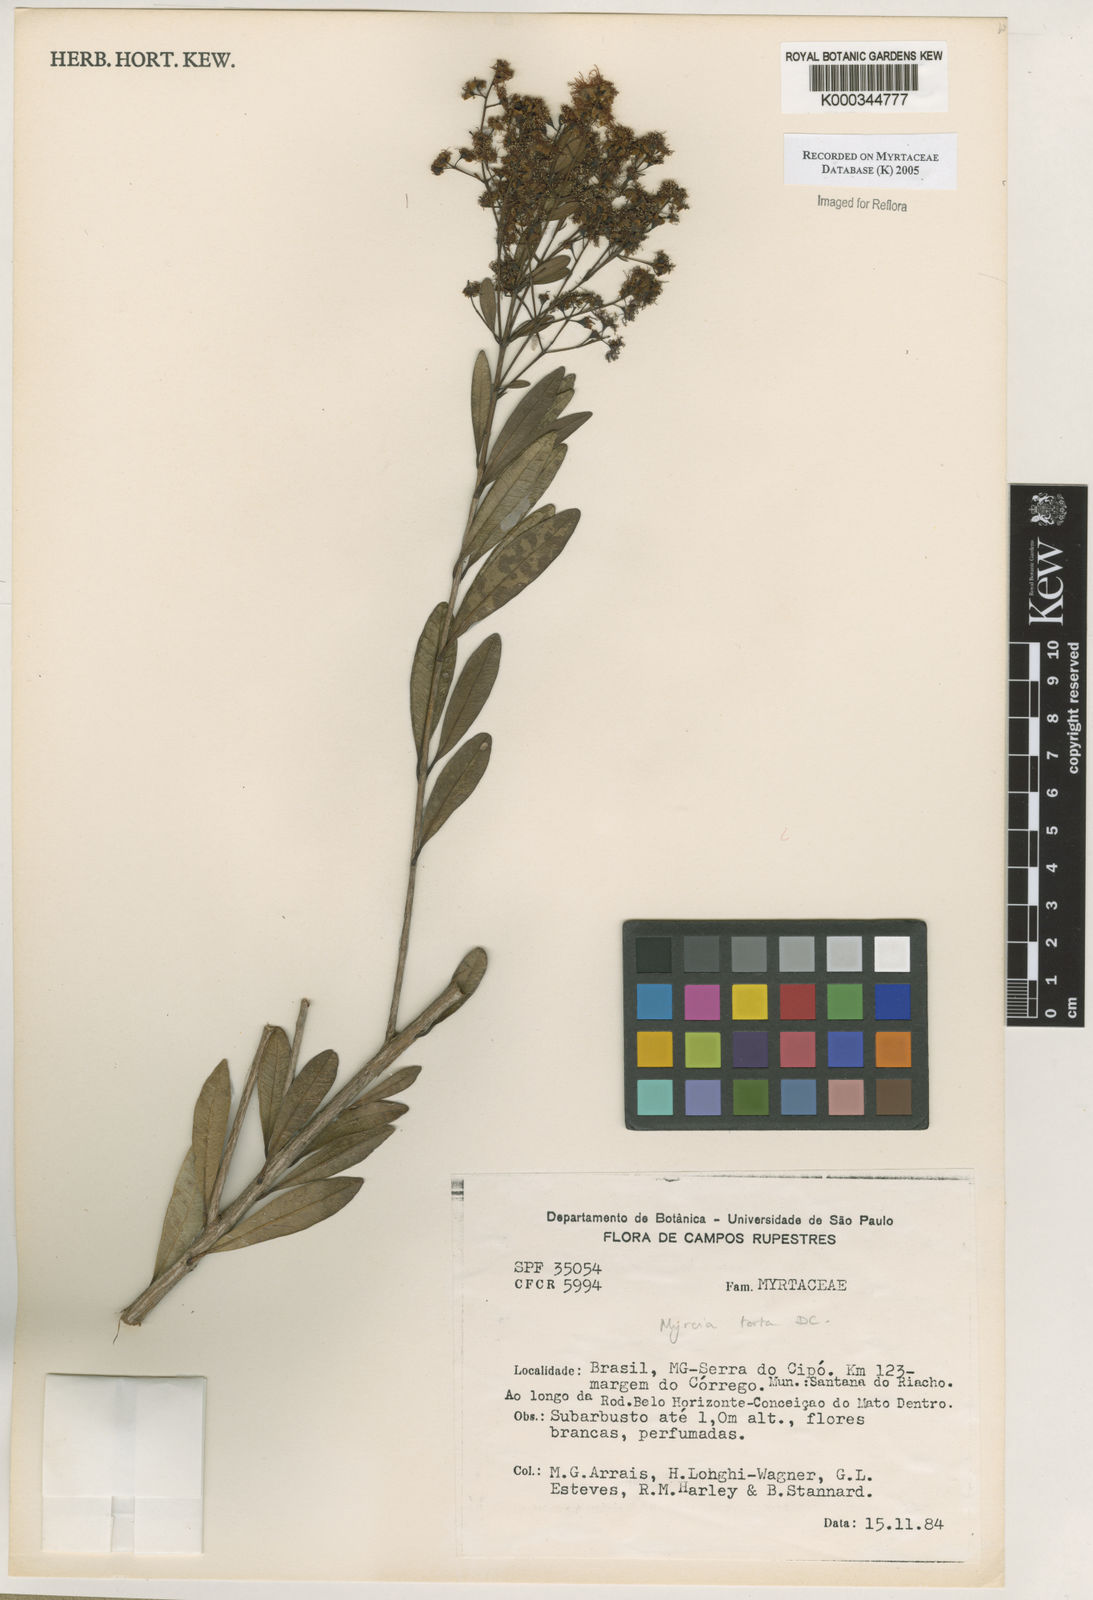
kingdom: Plantae
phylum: Tracheophyta
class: Magnoliopsida
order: Myrtales
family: Myrtaceae
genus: Myrcia
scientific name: Myrcia guianensis
